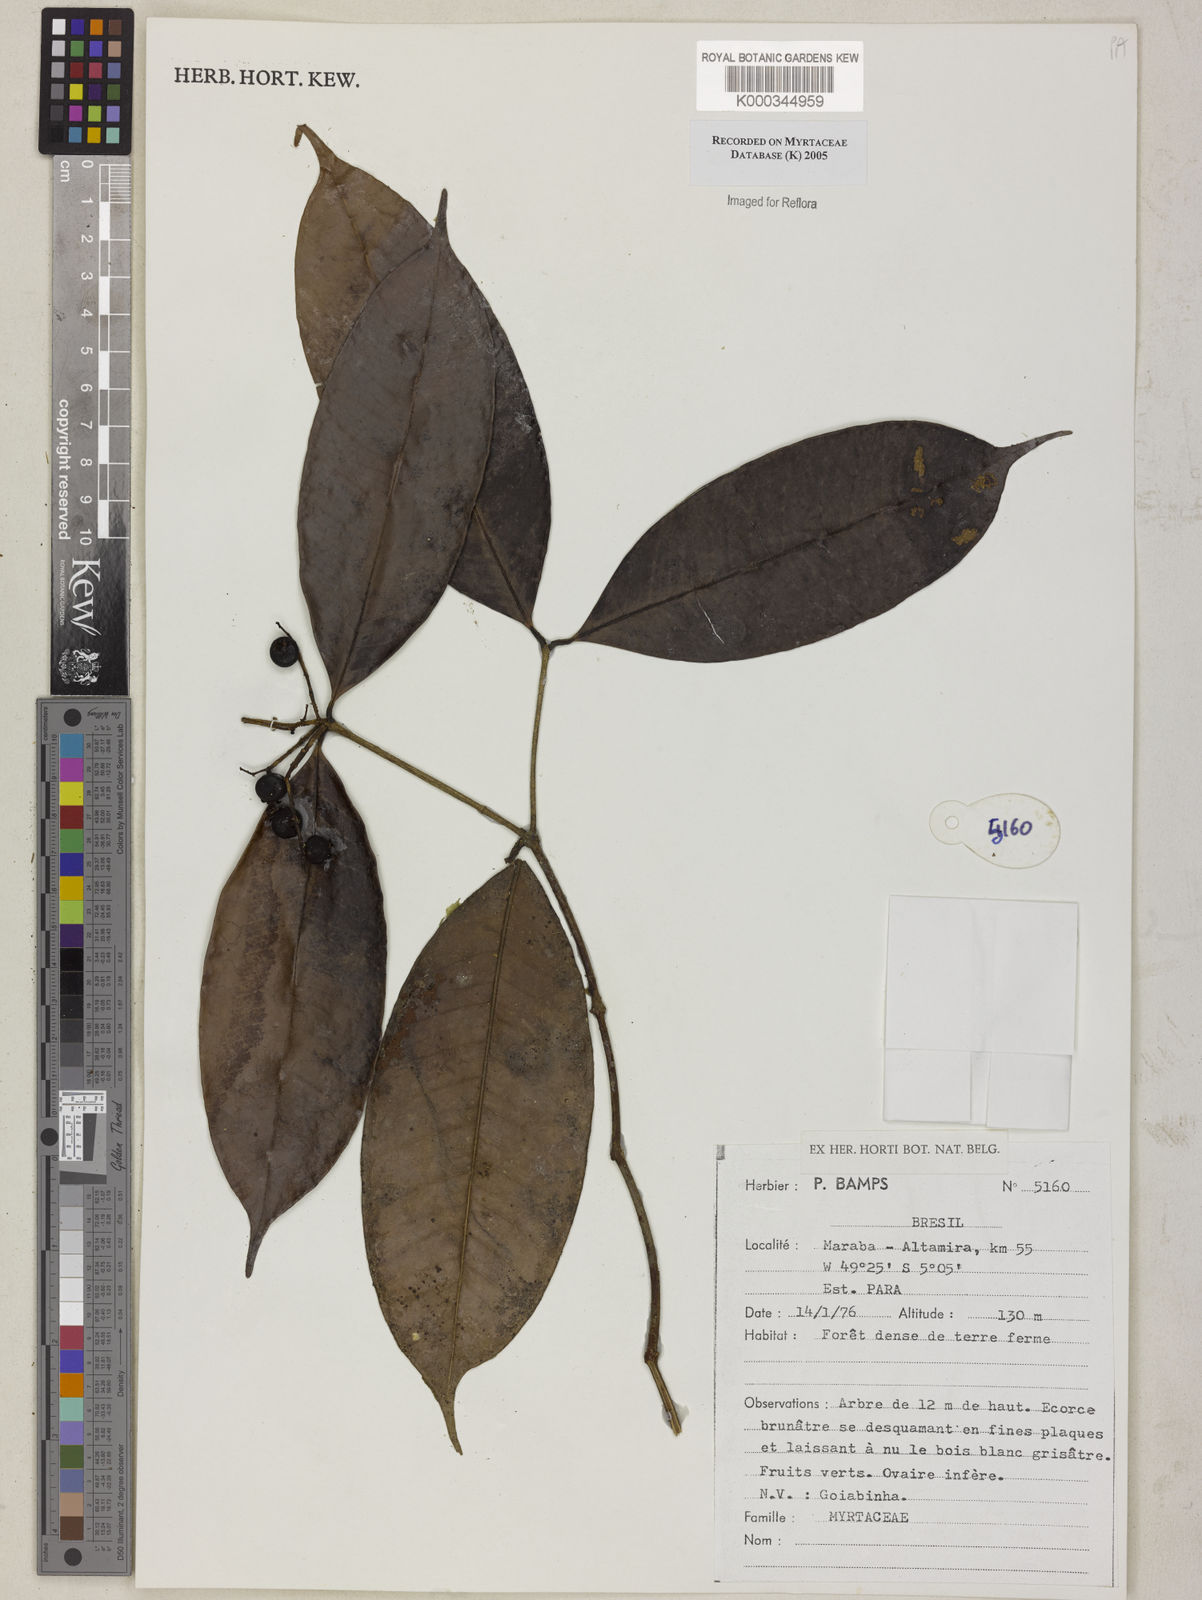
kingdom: Plantae
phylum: Tracheophyta
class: Magnoliopsida
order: Myrtales
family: Myrtaceae
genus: Myrcia
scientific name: Myrcia
